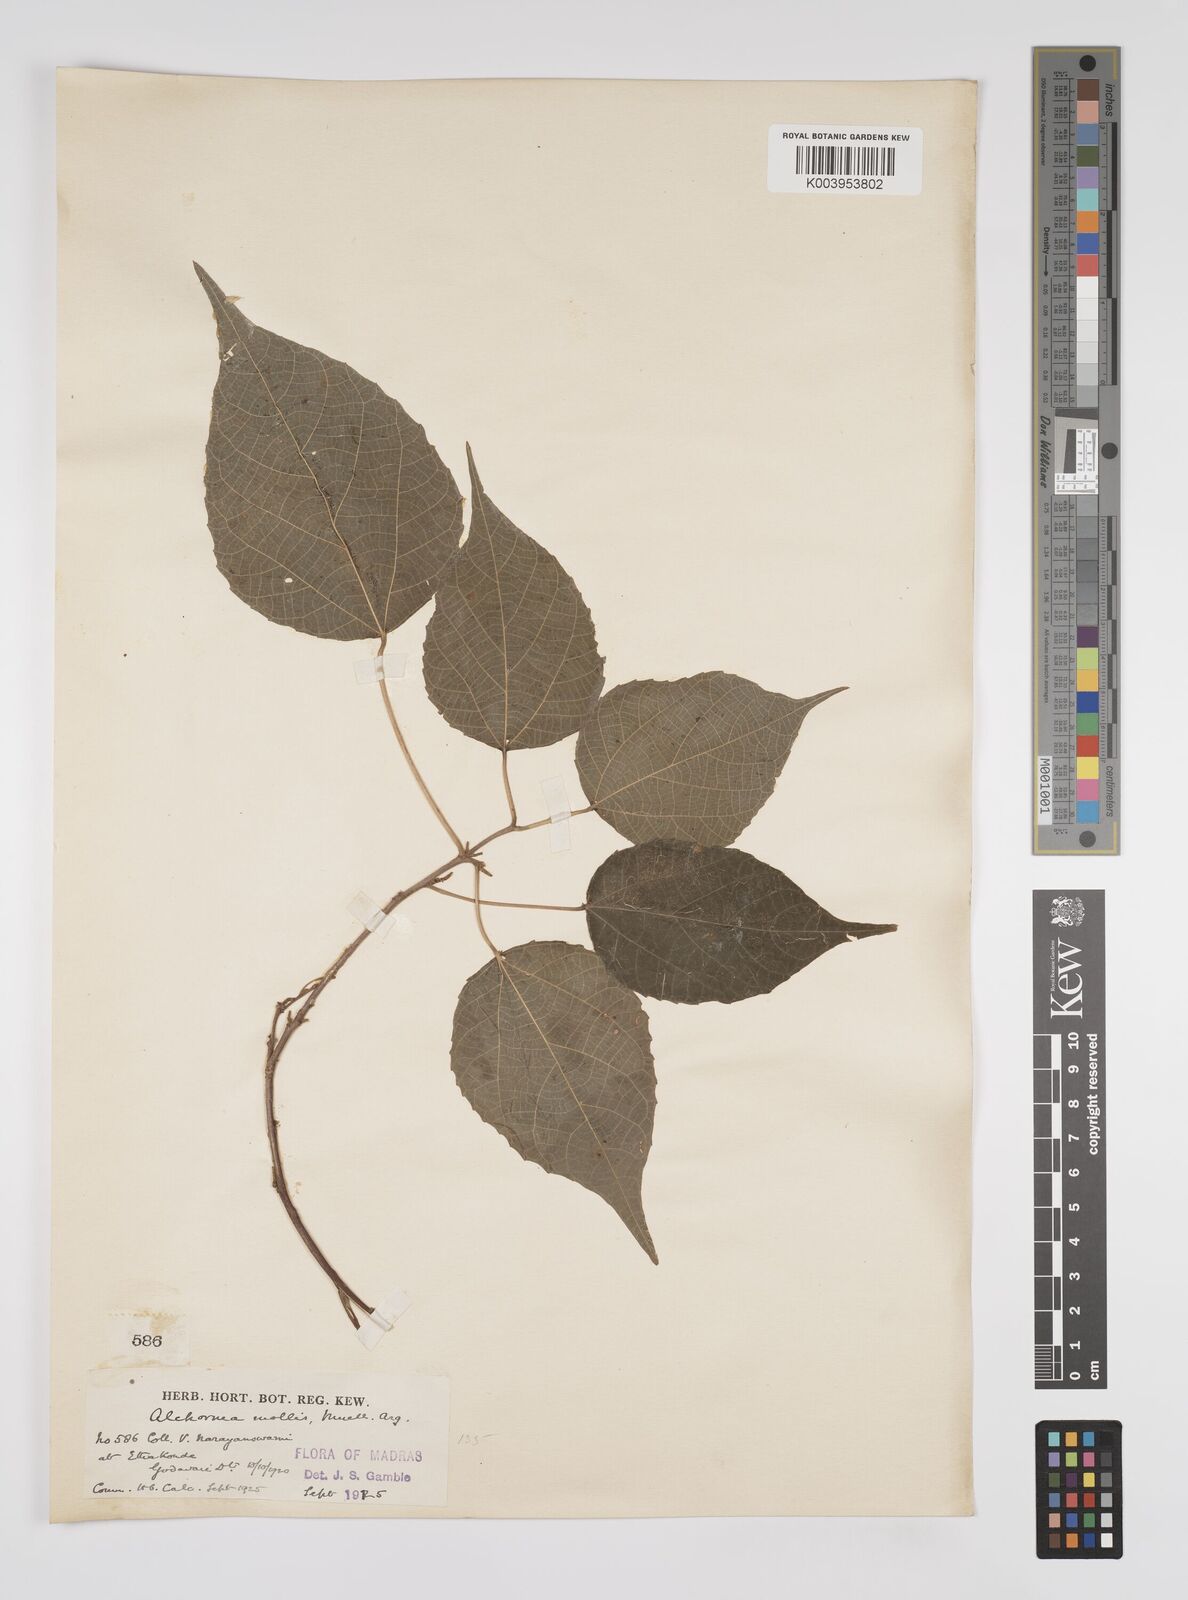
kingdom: Plantae
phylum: Tracheophyta
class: Magnoliopsida
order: Malpighiales
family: Euphorbiaceae
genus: Alchornea
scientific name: Alchornea mollis
